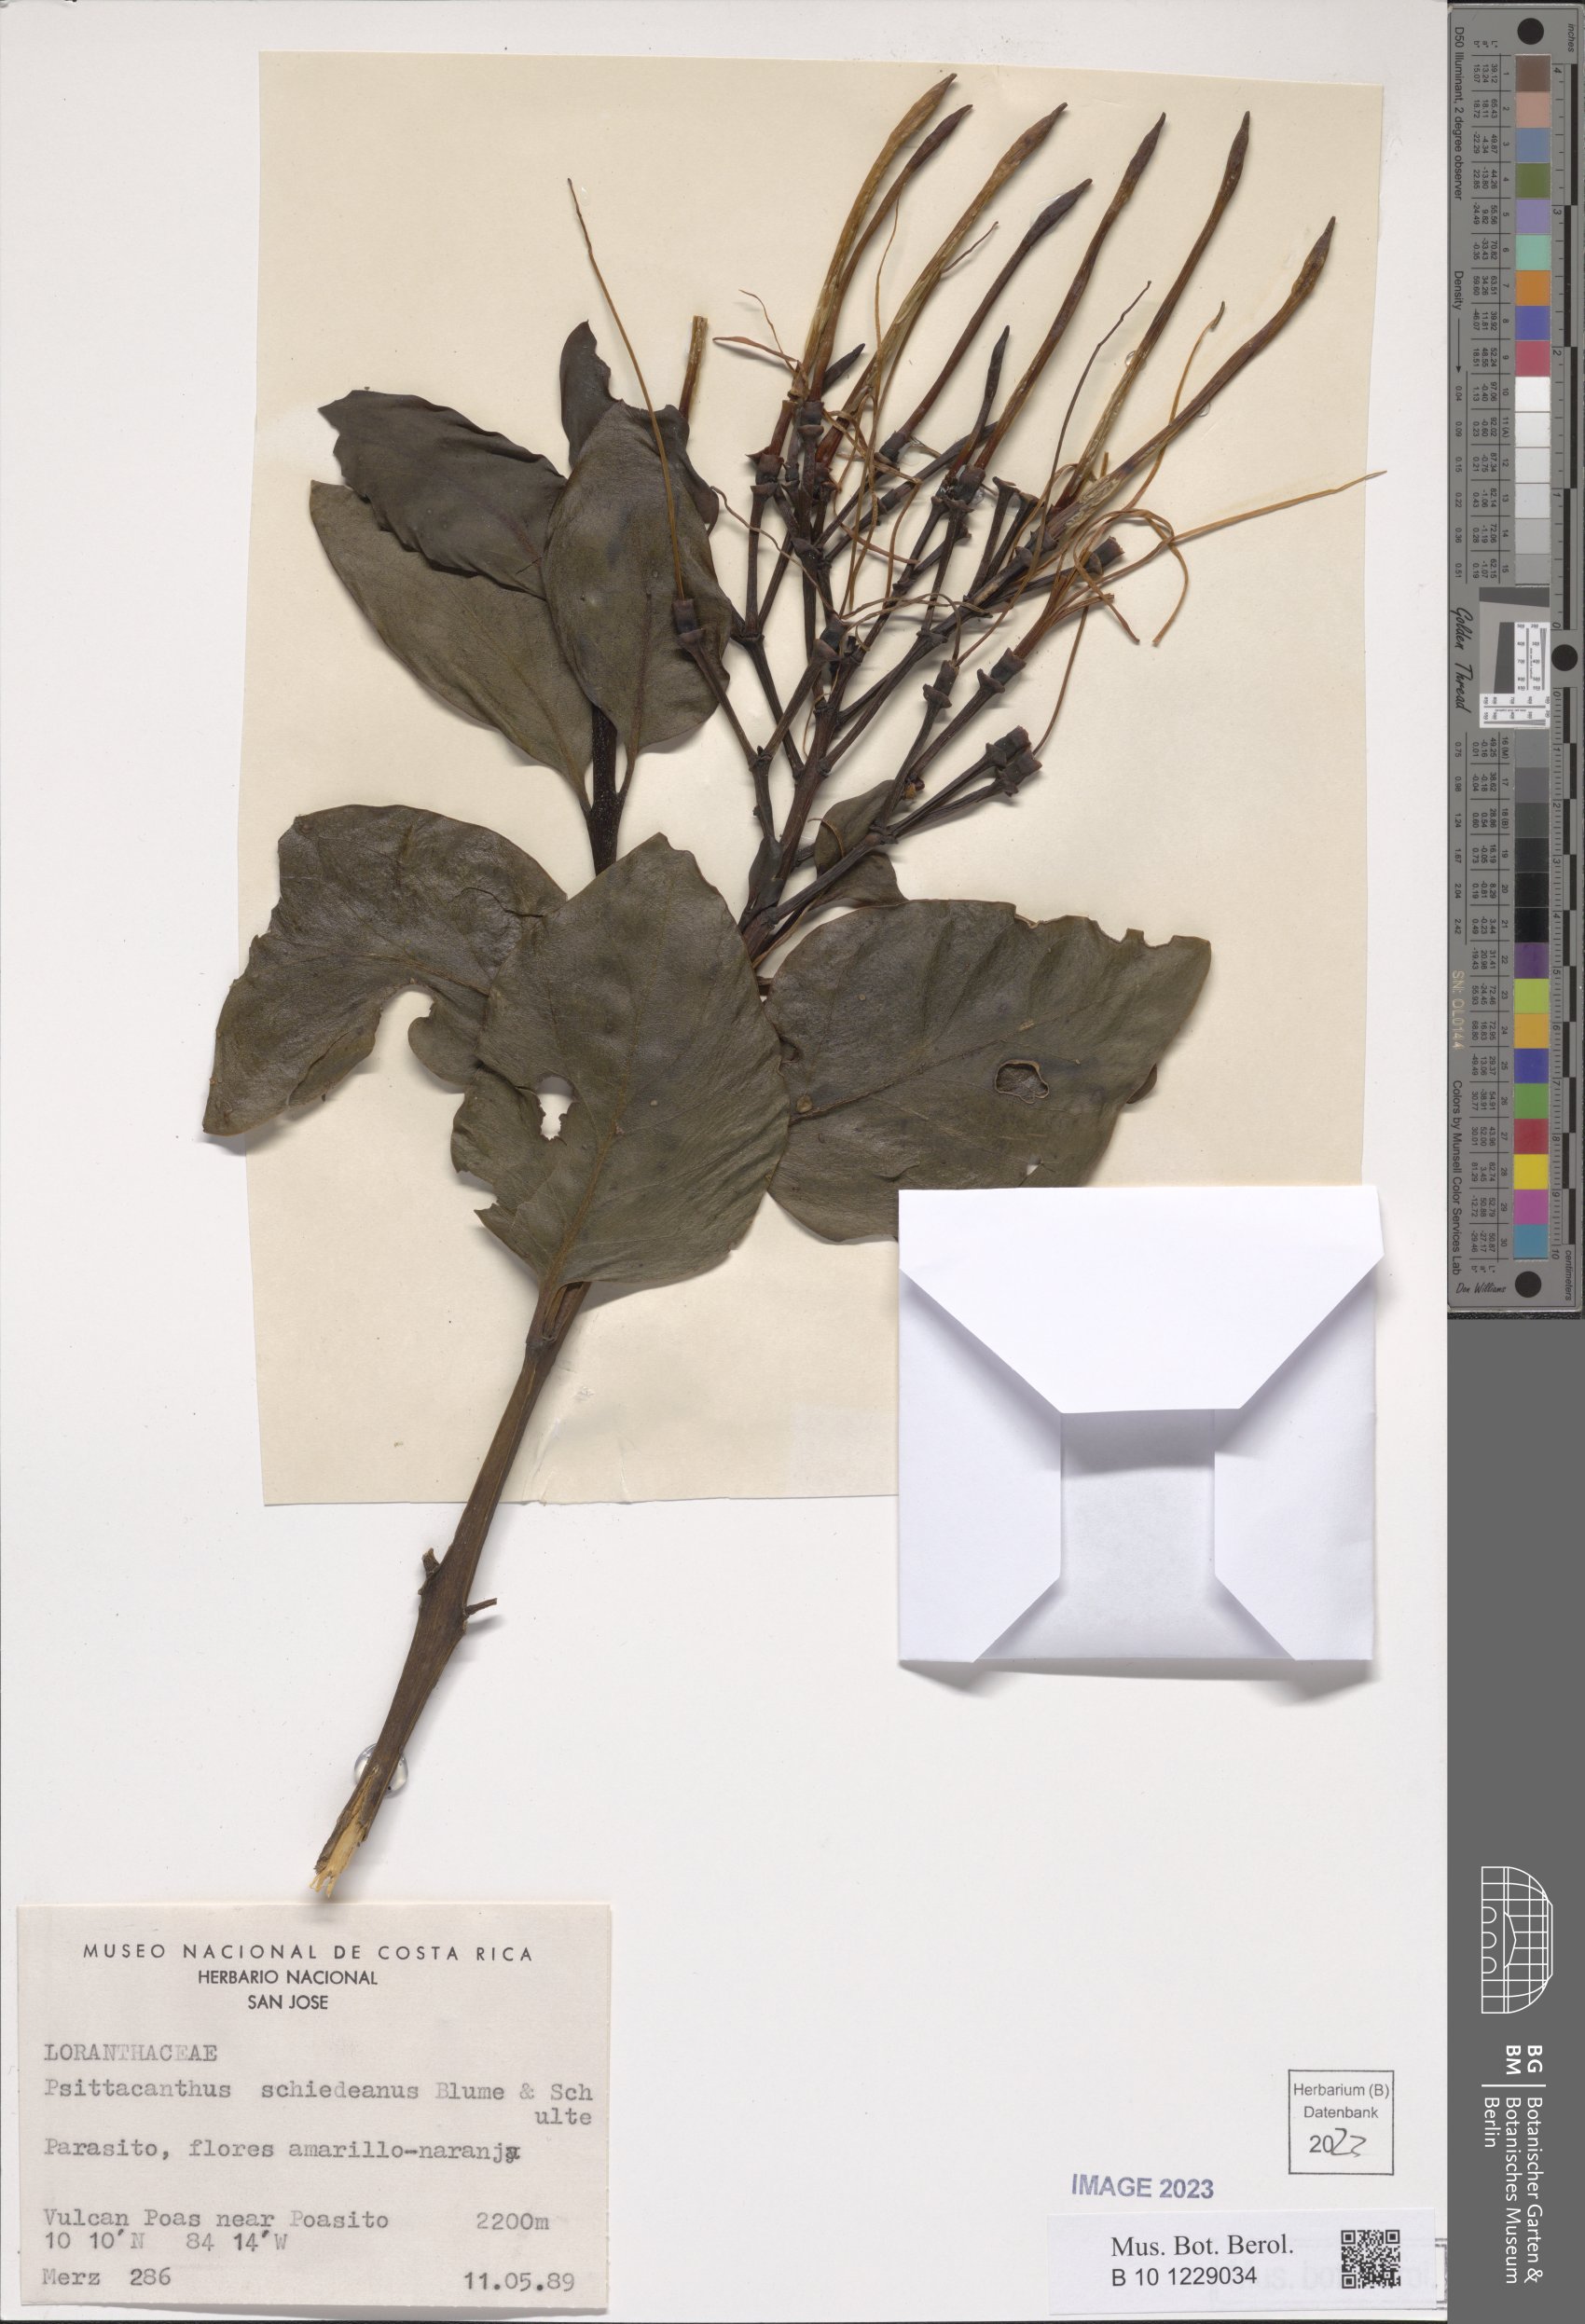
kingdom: Plantae
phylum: Tracheophyta
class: Magnoliopsida
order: Santalales
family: Loranthaceae
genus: Psittacanthus
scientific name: Psittacanthus schiedeanus
